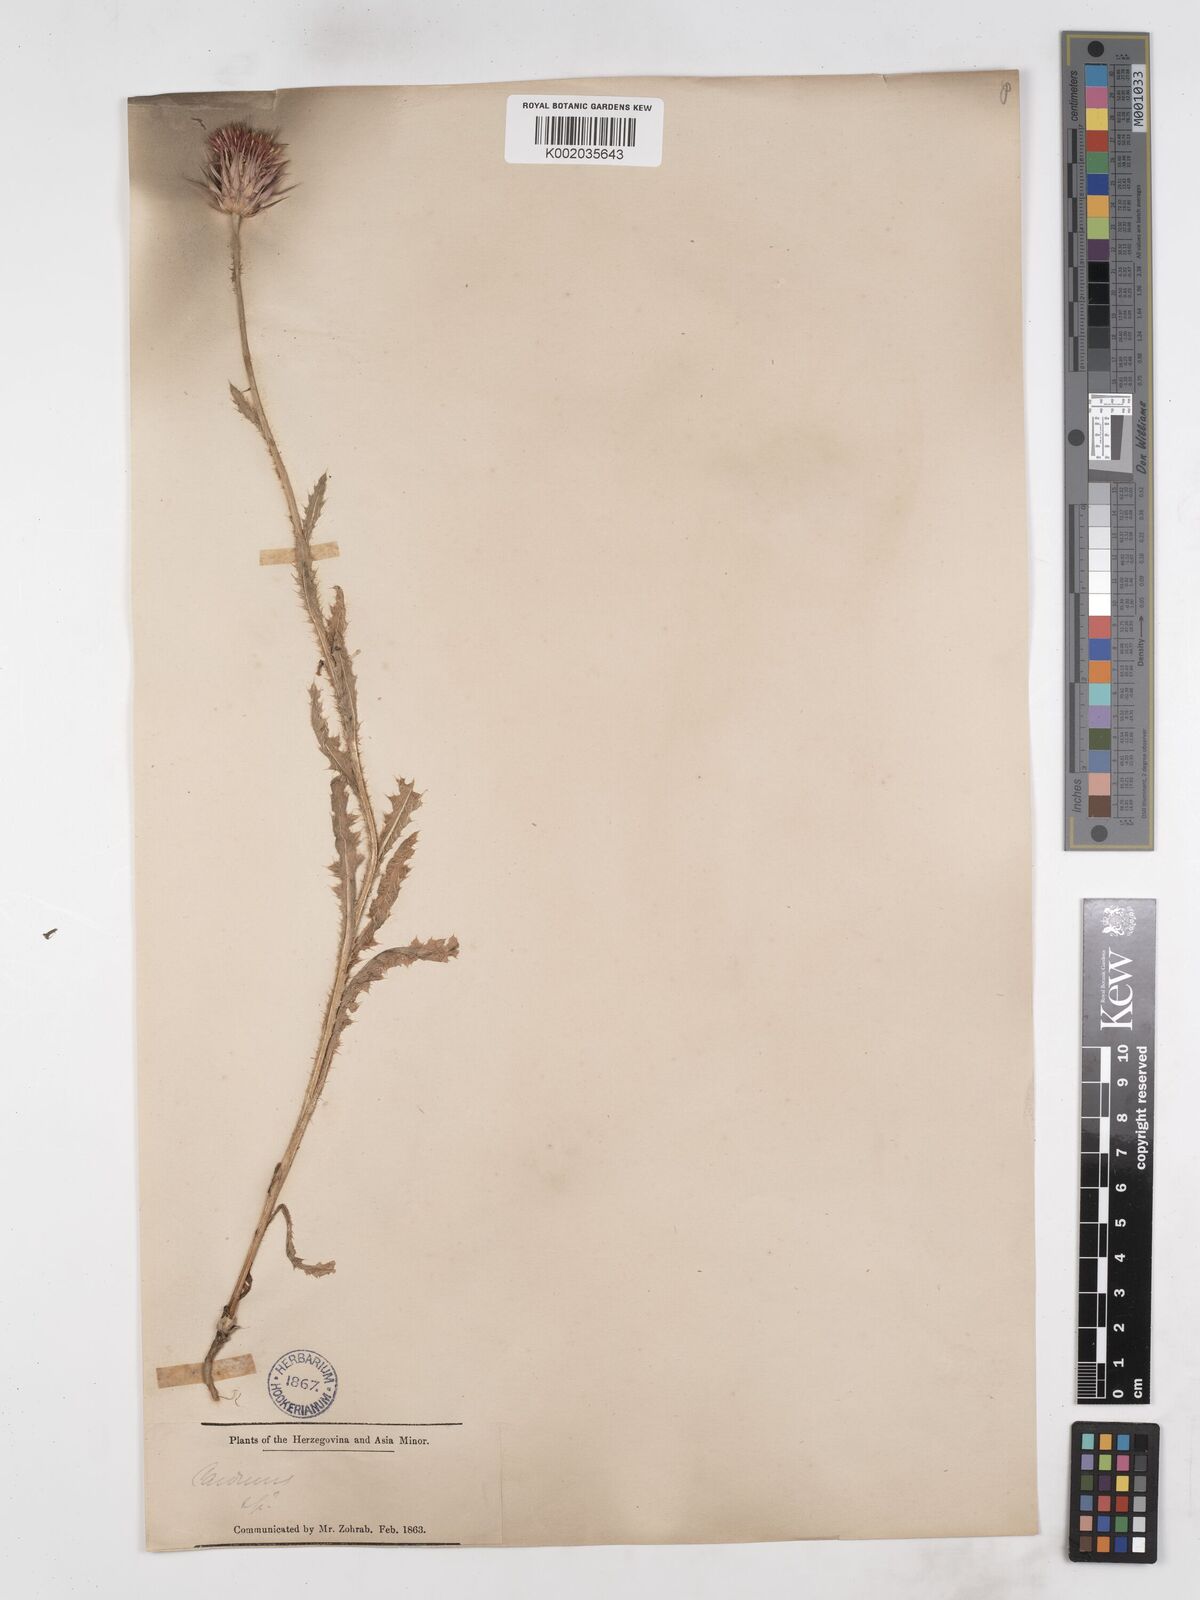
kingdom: Plantae
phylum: Tracheophyta
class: Magnoliopsida
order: Asterales
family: Asteraceae
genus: Carduus
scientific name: Carduus nutans
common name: Musk thistle
